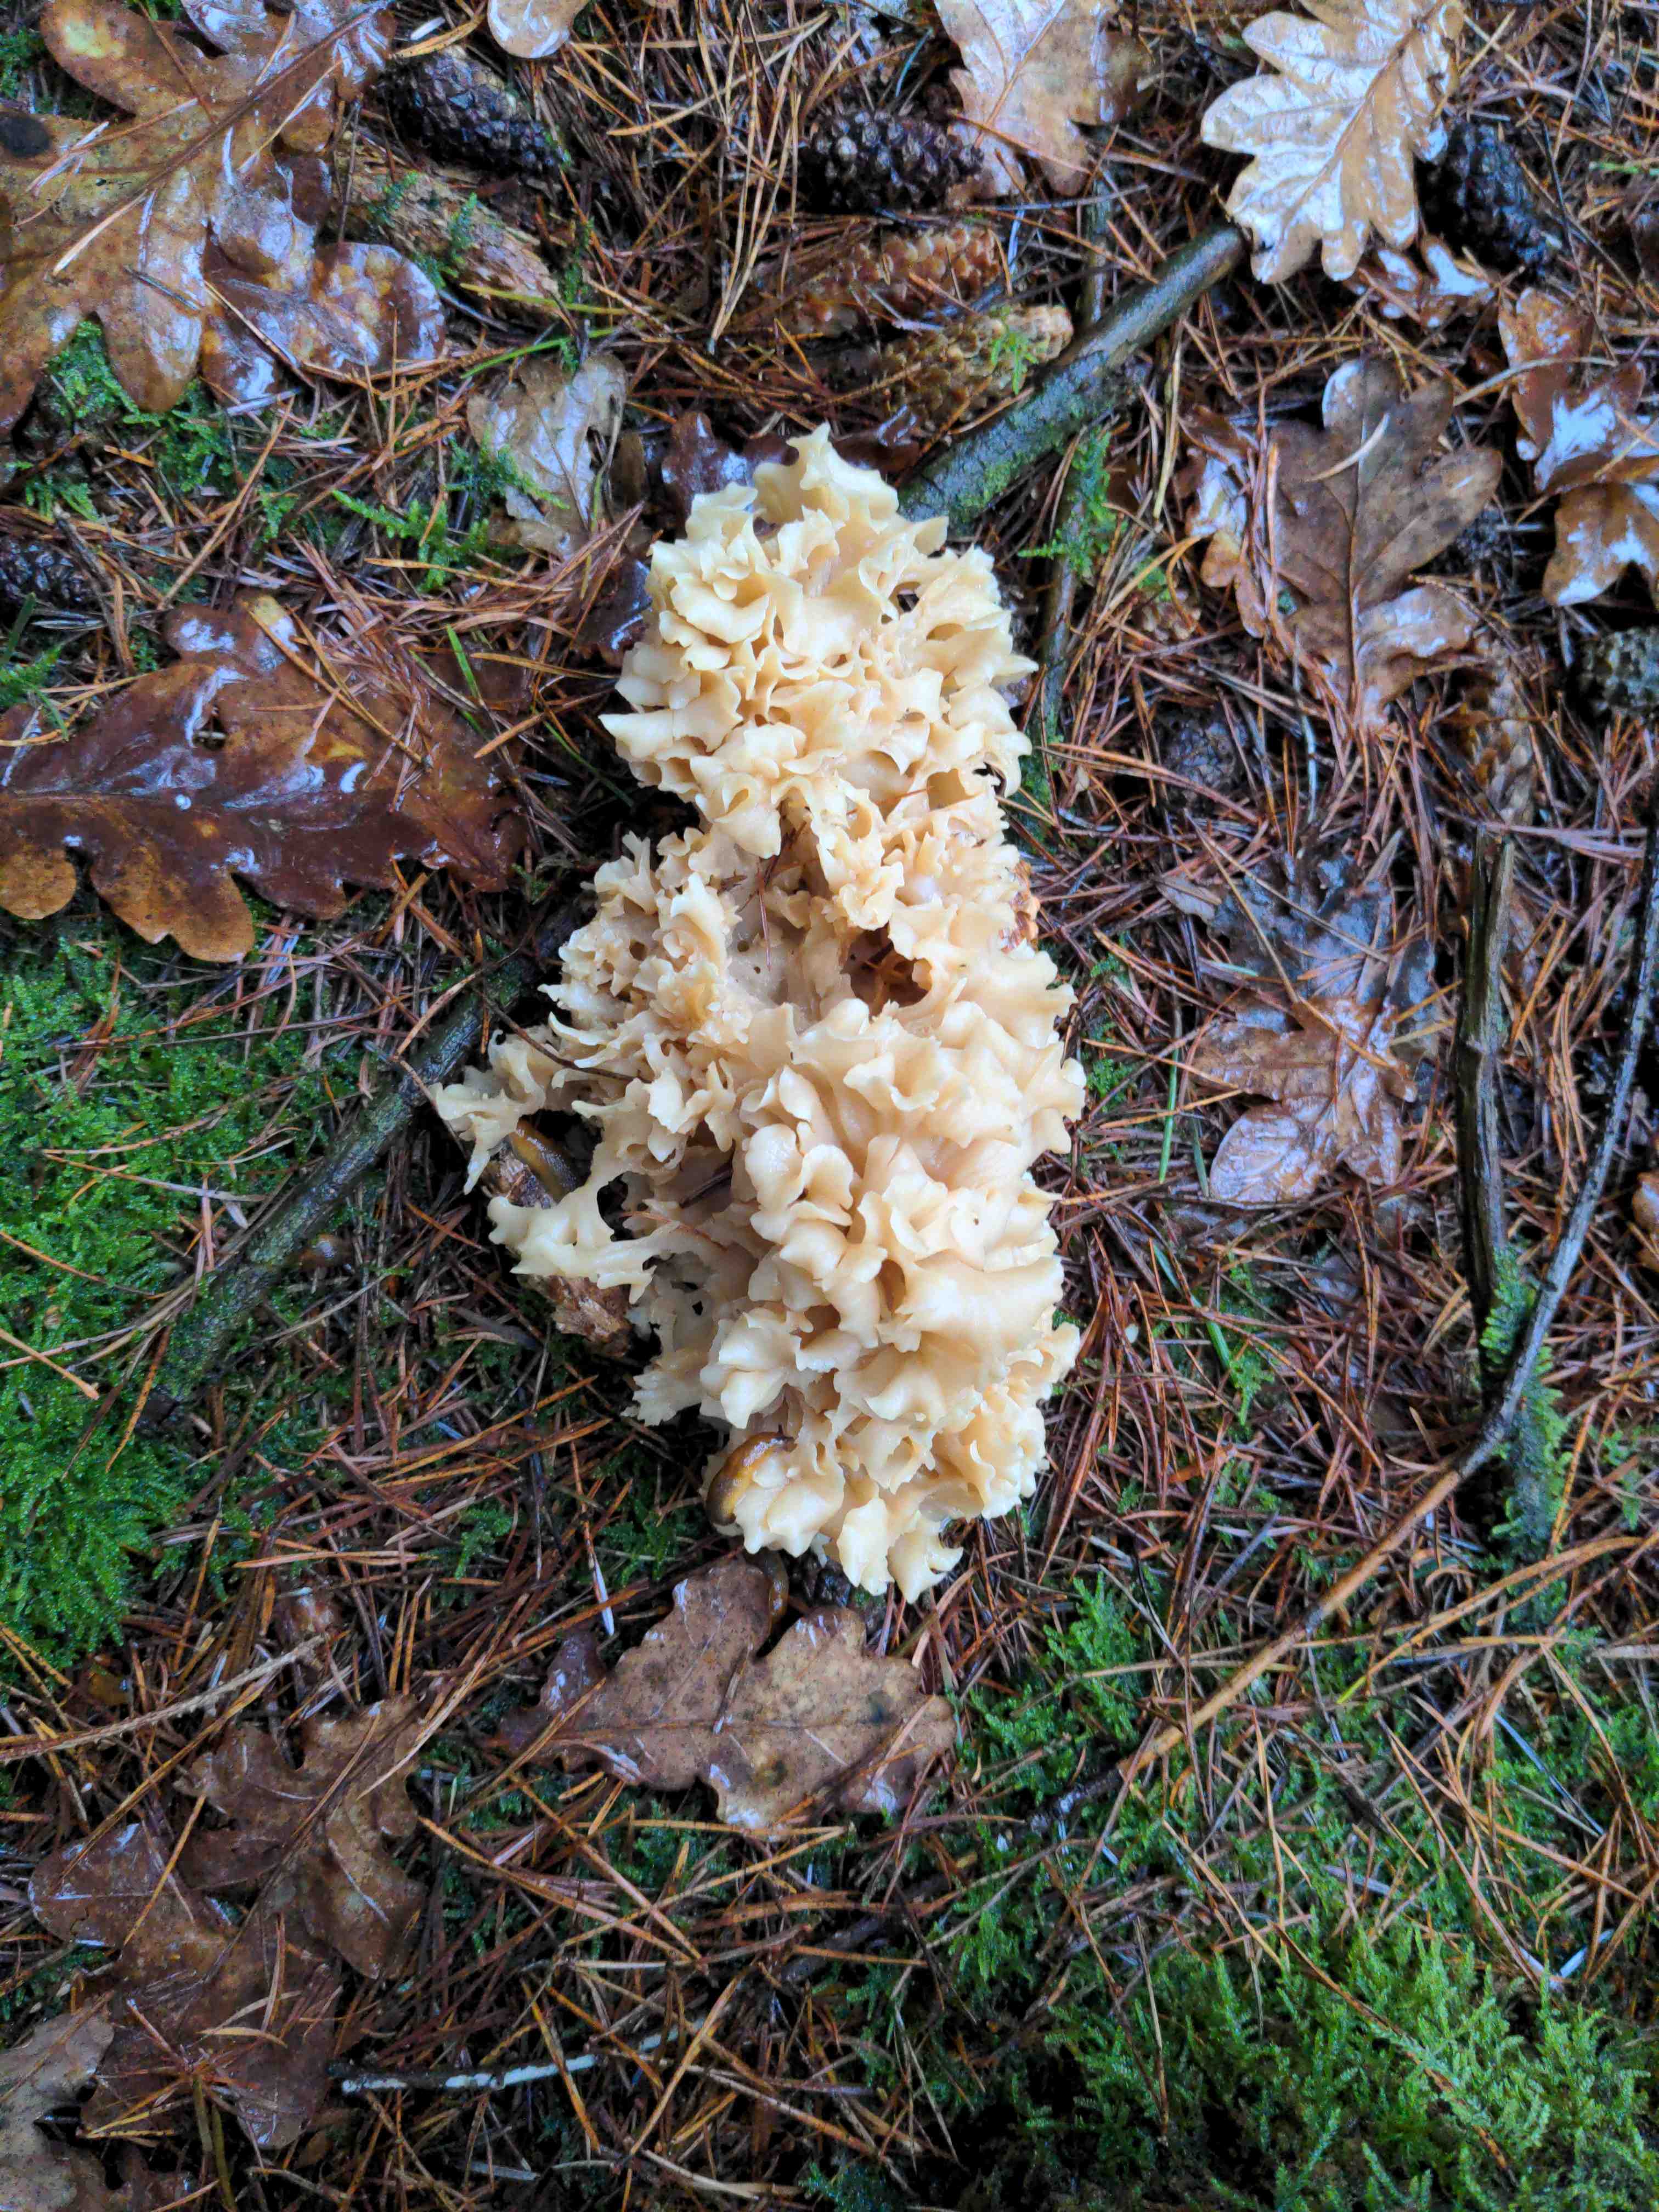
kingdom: Fungi
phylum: Basidiomycota
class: Agaricomycetes
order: Polyporales
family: Sparassidaceae
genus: Sparassis
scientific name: Sparassis crispa
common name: kruset blomkålssvamp
